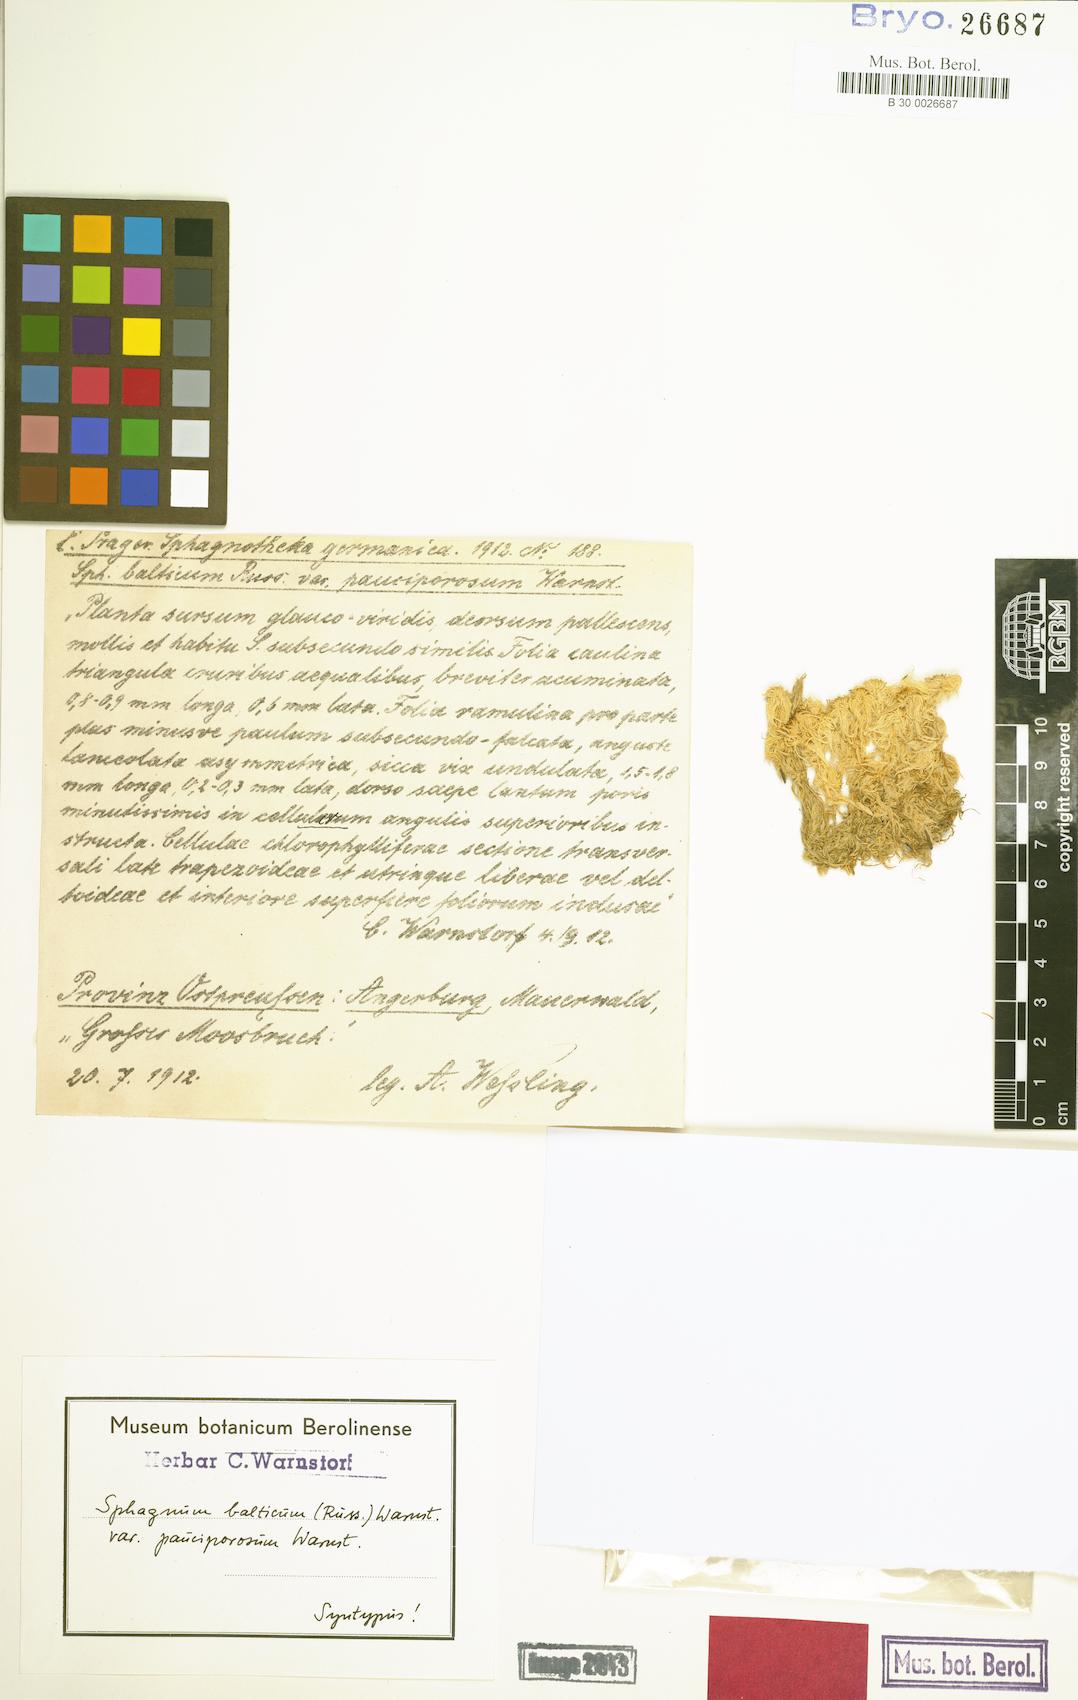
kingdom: Plantae
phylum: Bryophyta
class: Sphagnopsida
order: Sphagnales
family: Sphagnaceae
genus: Sphagnum
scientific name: Sphagnum balticum
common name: Baltic bog-moss
